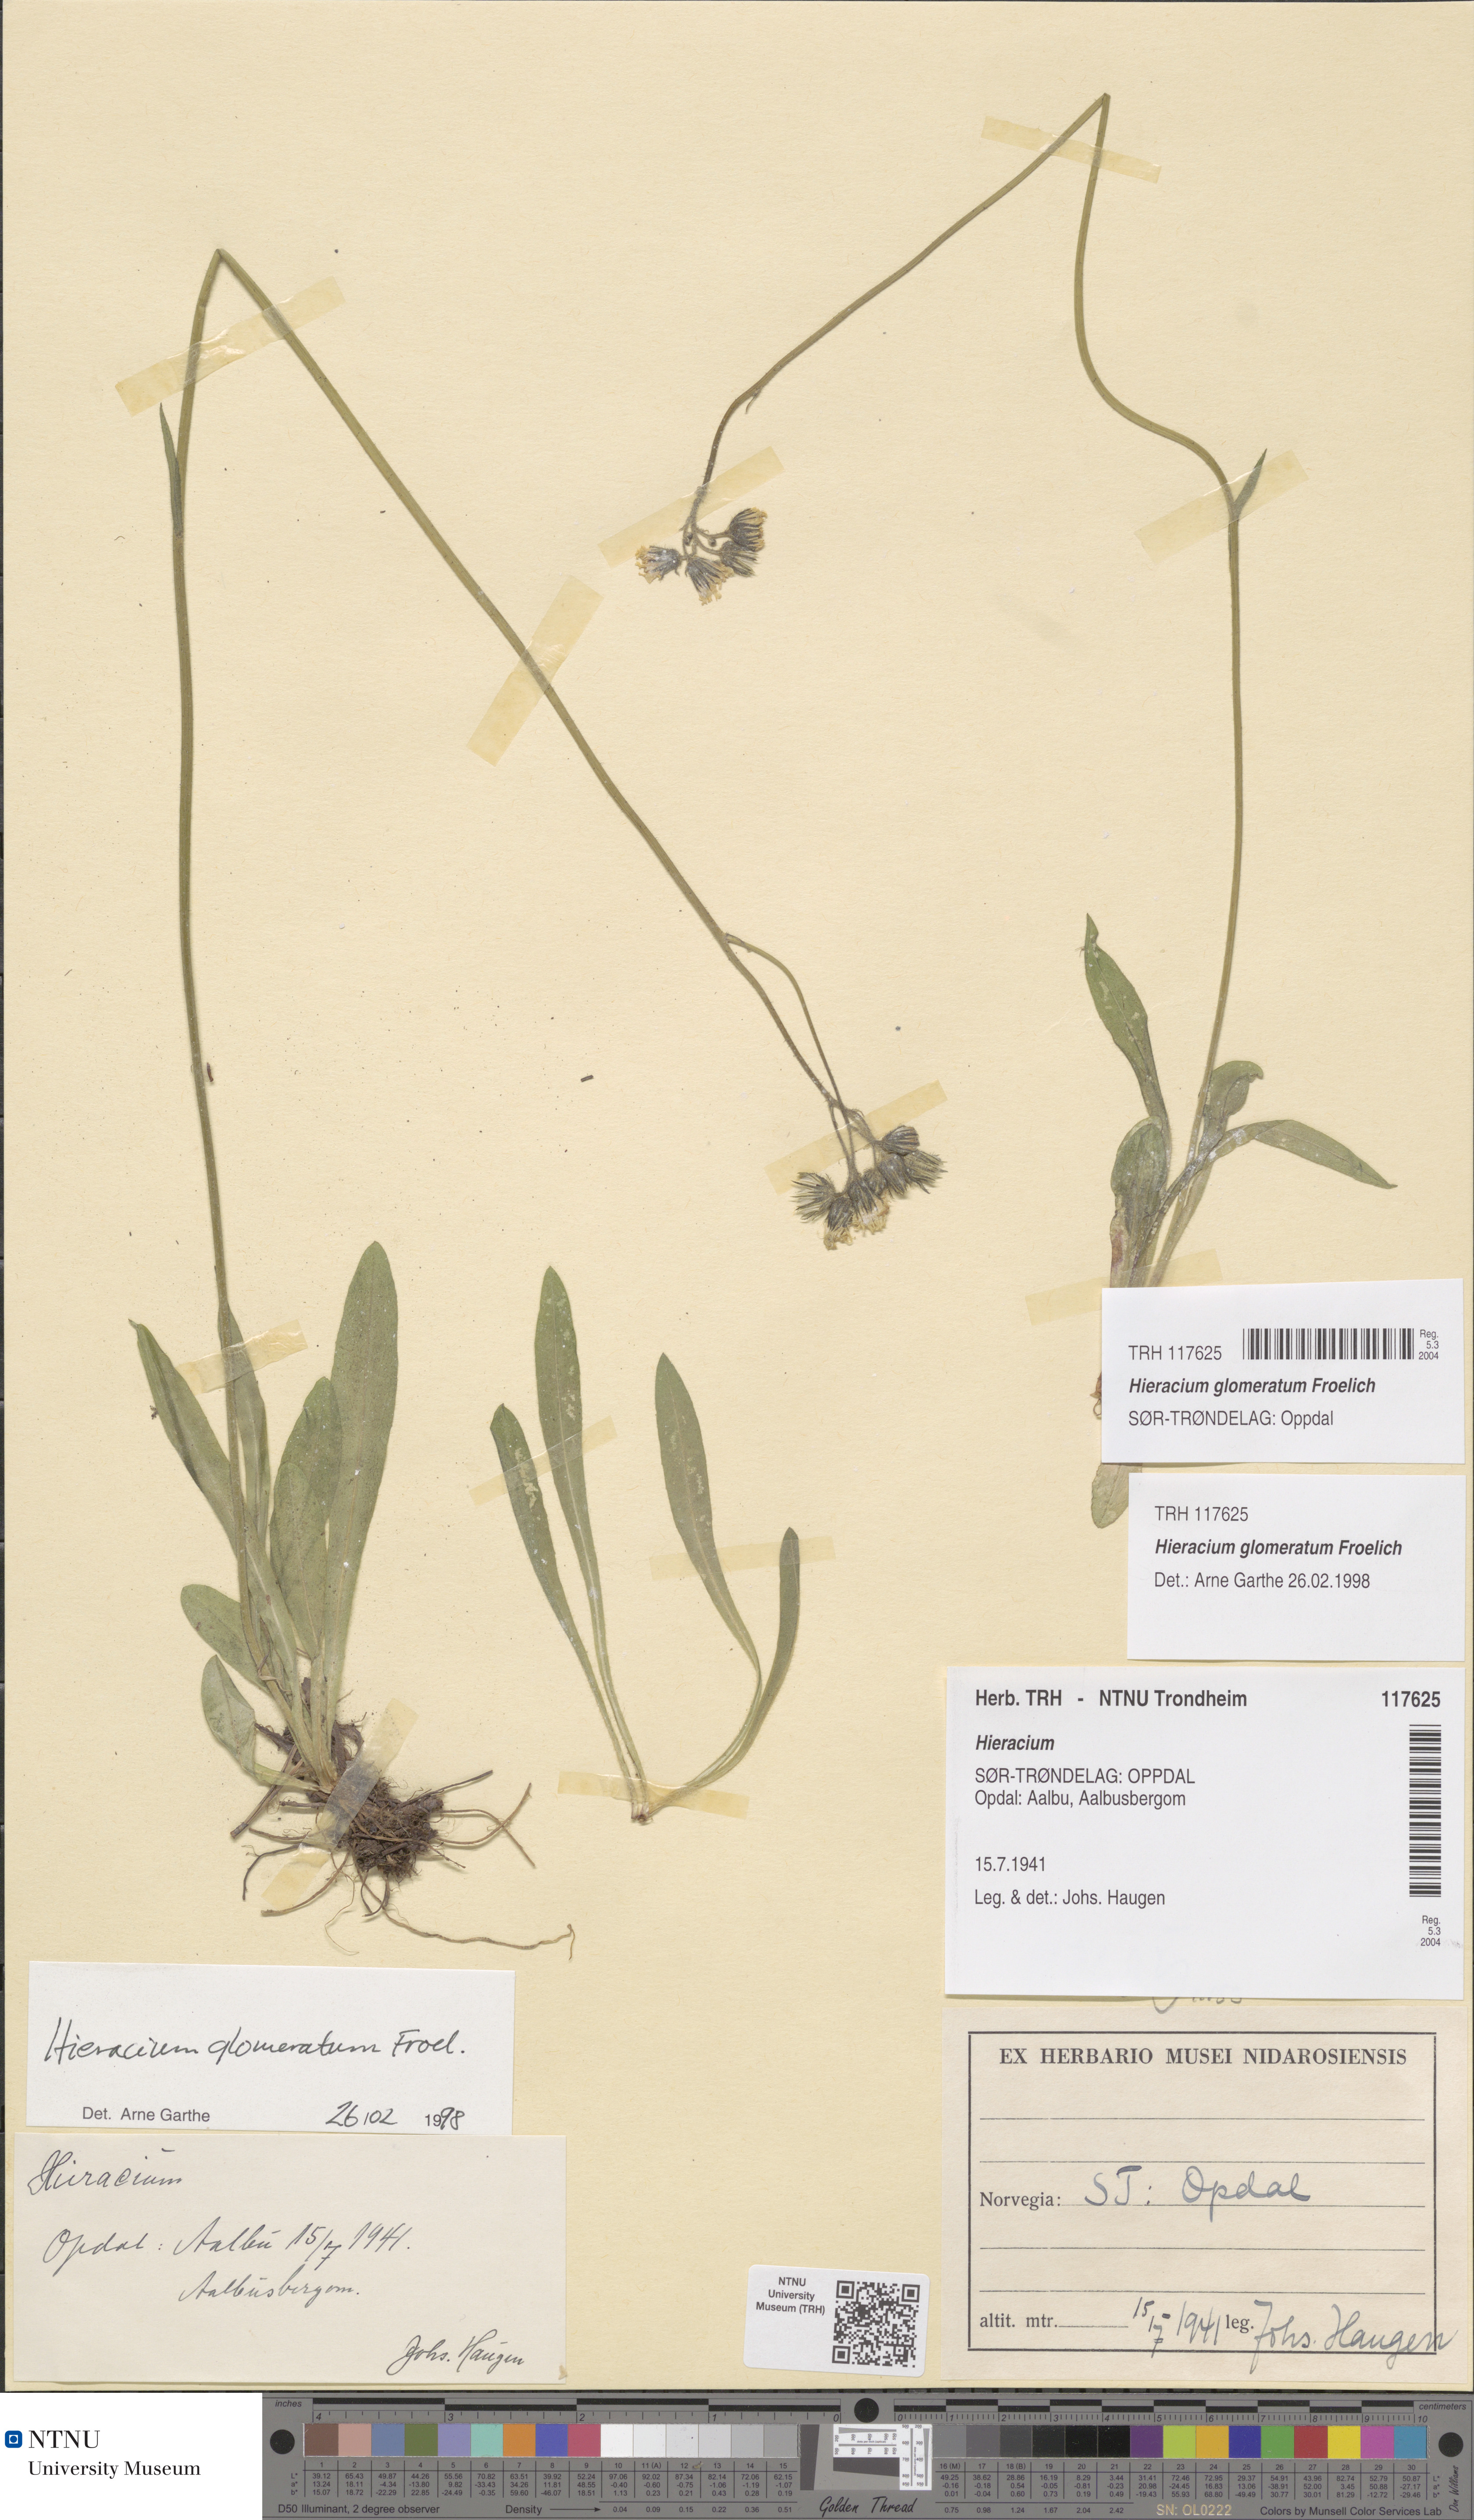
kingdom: Plantae
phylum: Tracheophyta
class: Magnoliopsida
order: Asterales
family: Asteraceae
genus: Pilosella
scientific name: Pilosella glomerata
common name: Queen devil hawkweed
